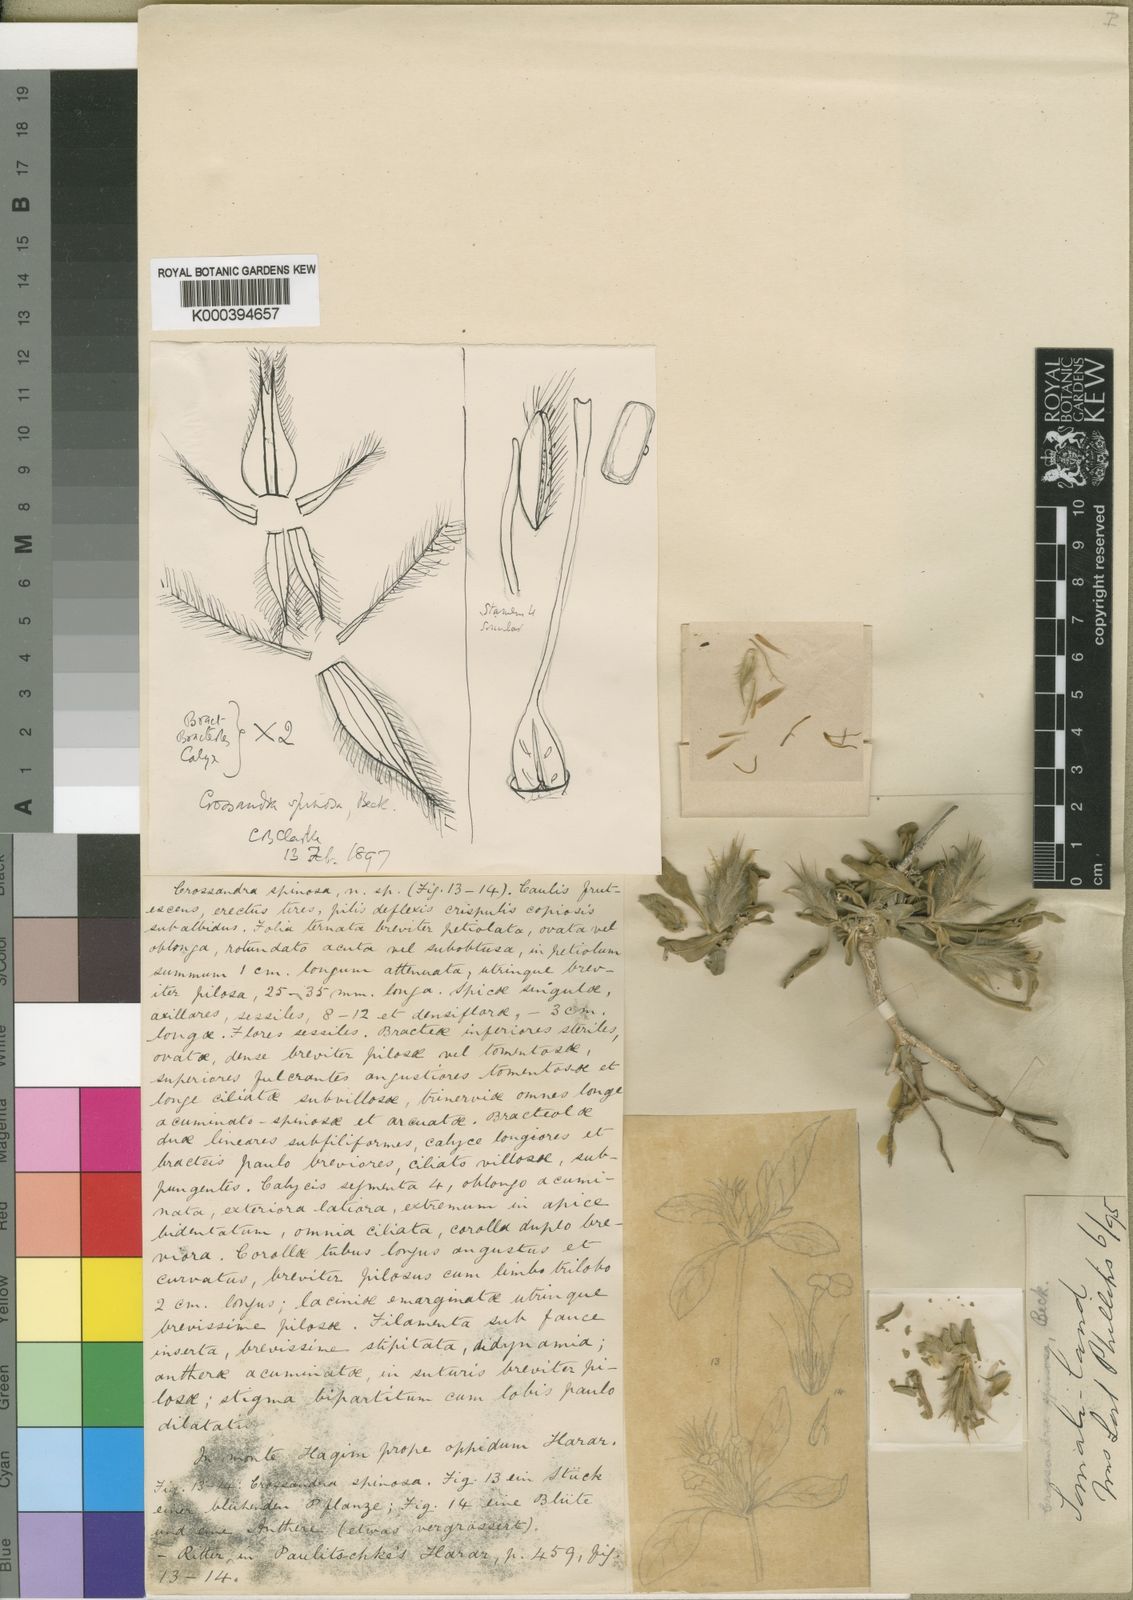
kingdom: Plantae
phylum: Tracheophyta
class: Magnoliopsida
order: Lamiales
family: Acanthaceae
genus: Crossandra
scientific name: Crossandra spinosa
